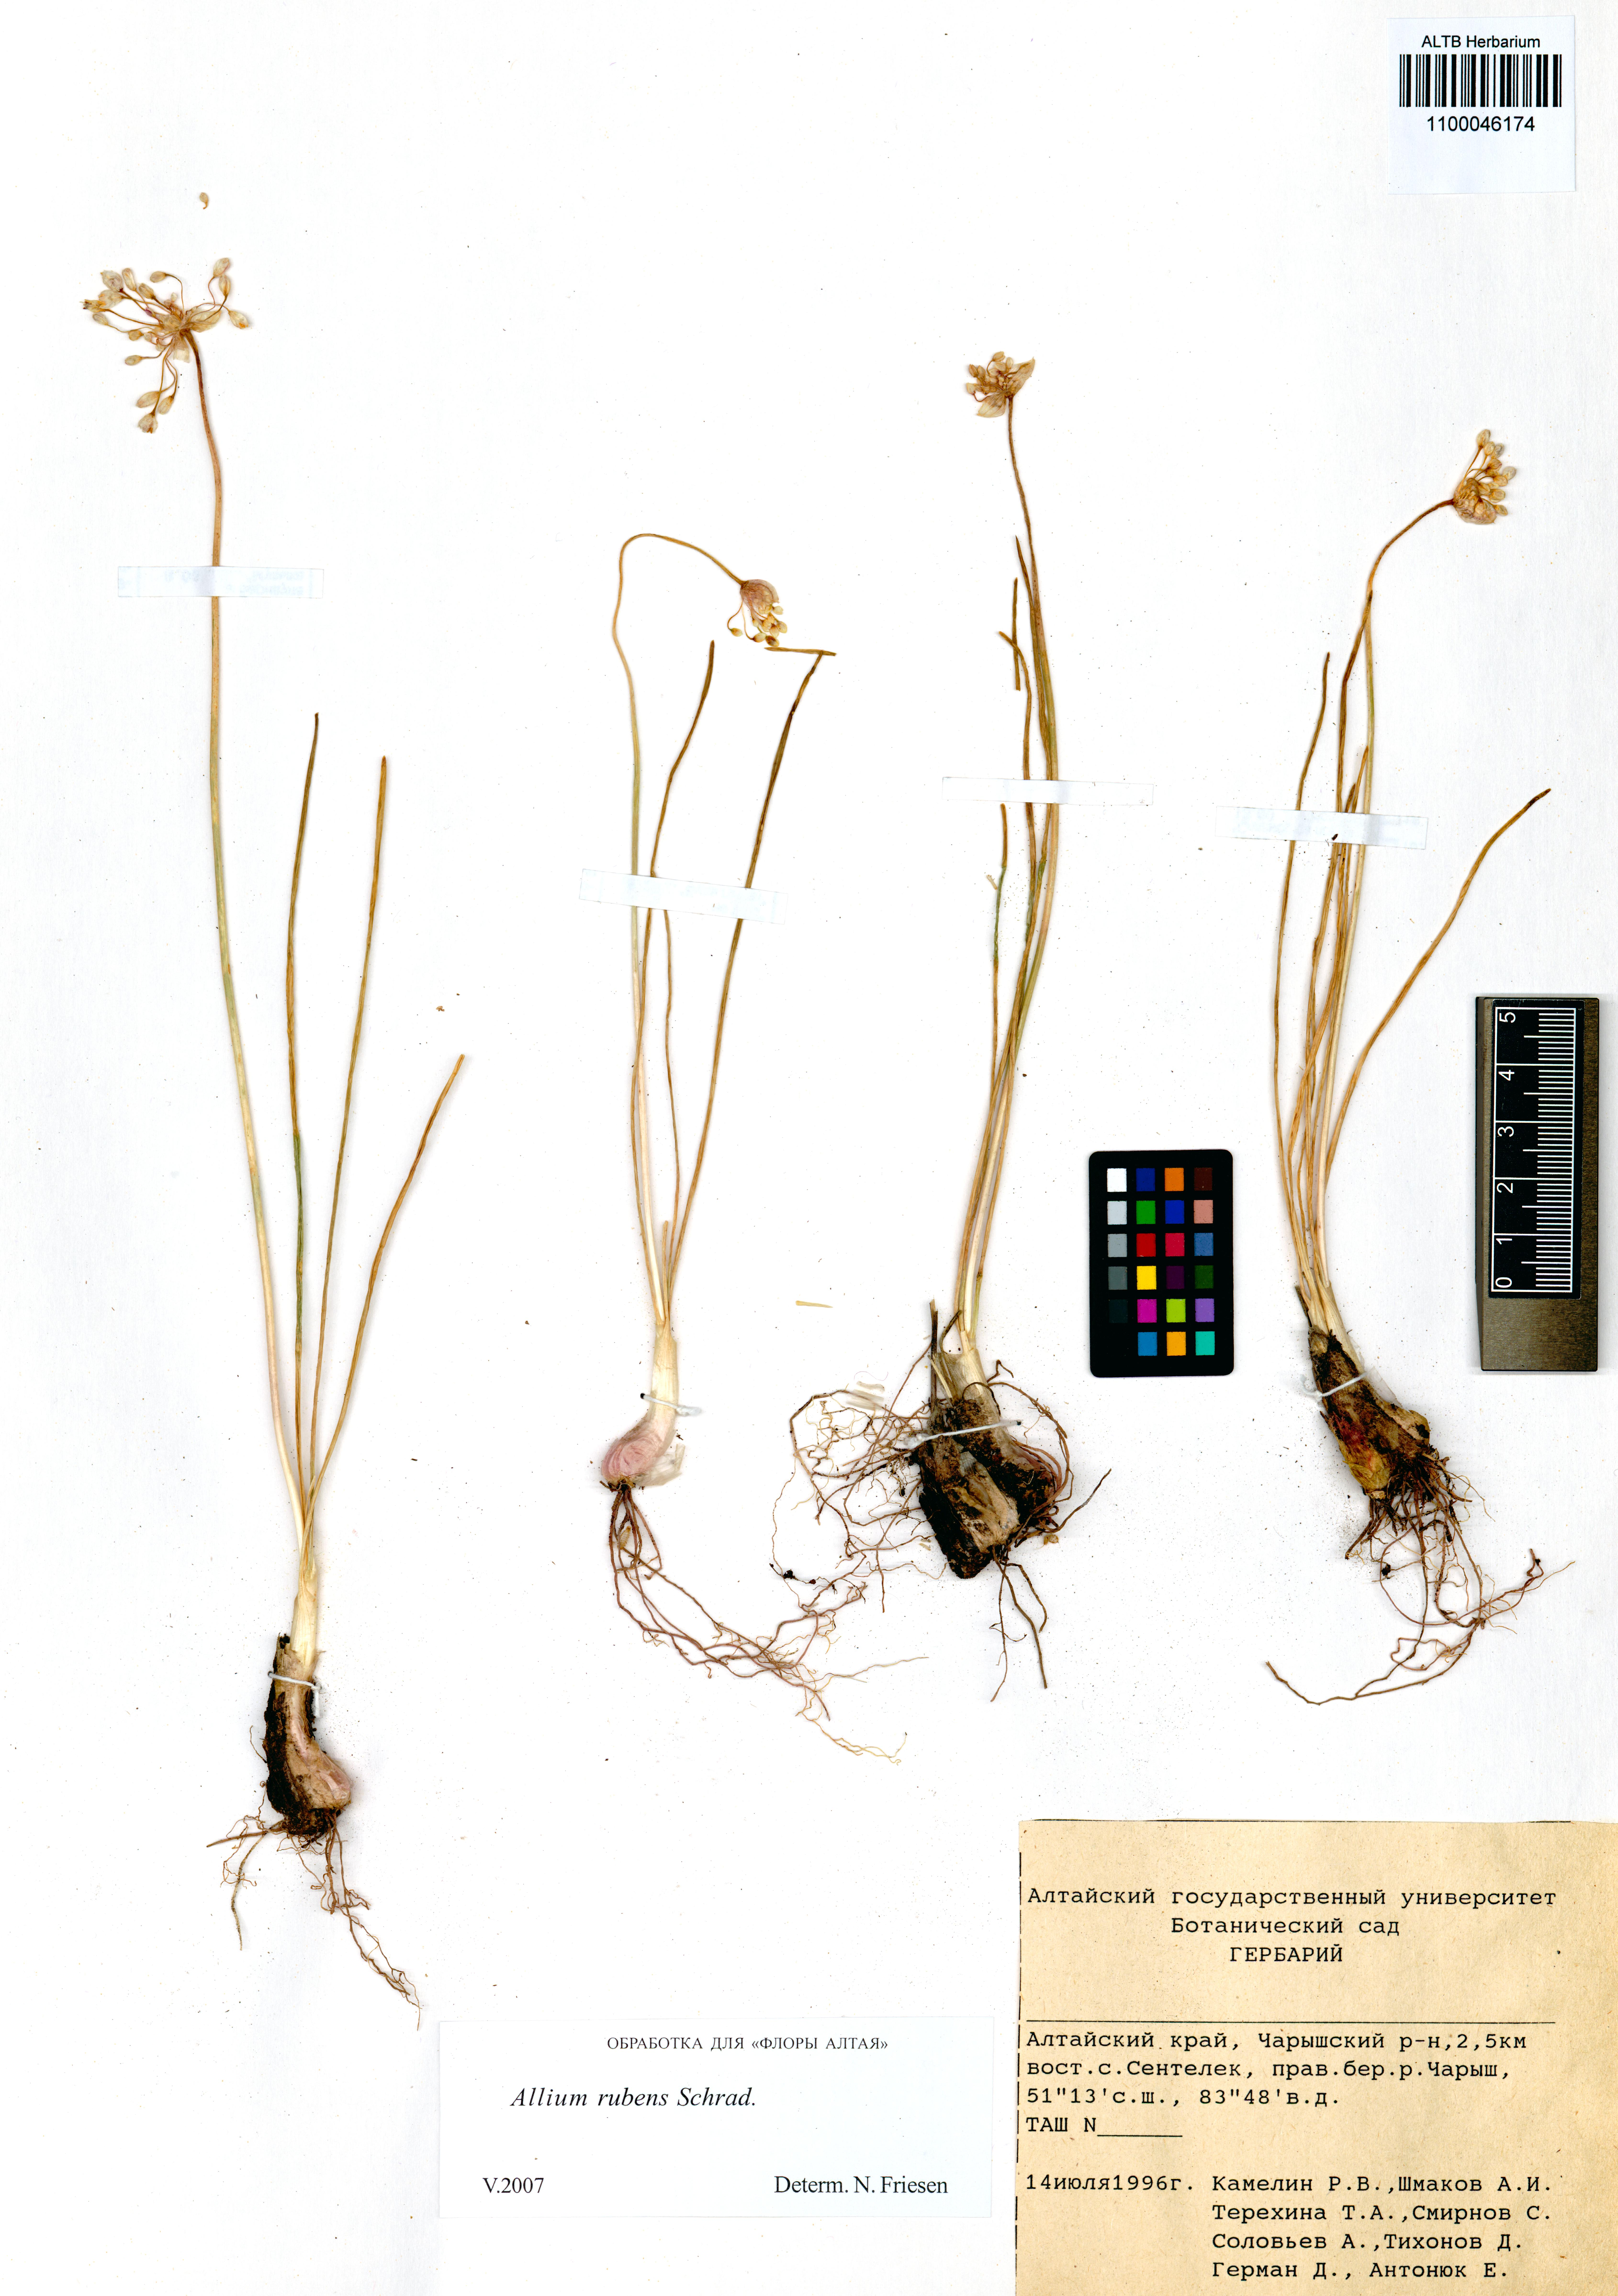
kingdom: Plantae
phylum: Tracheophyta
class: Liliopsida
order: Asparagales
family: Amaryllidaceae
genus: Allium
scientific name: Allium rubens
